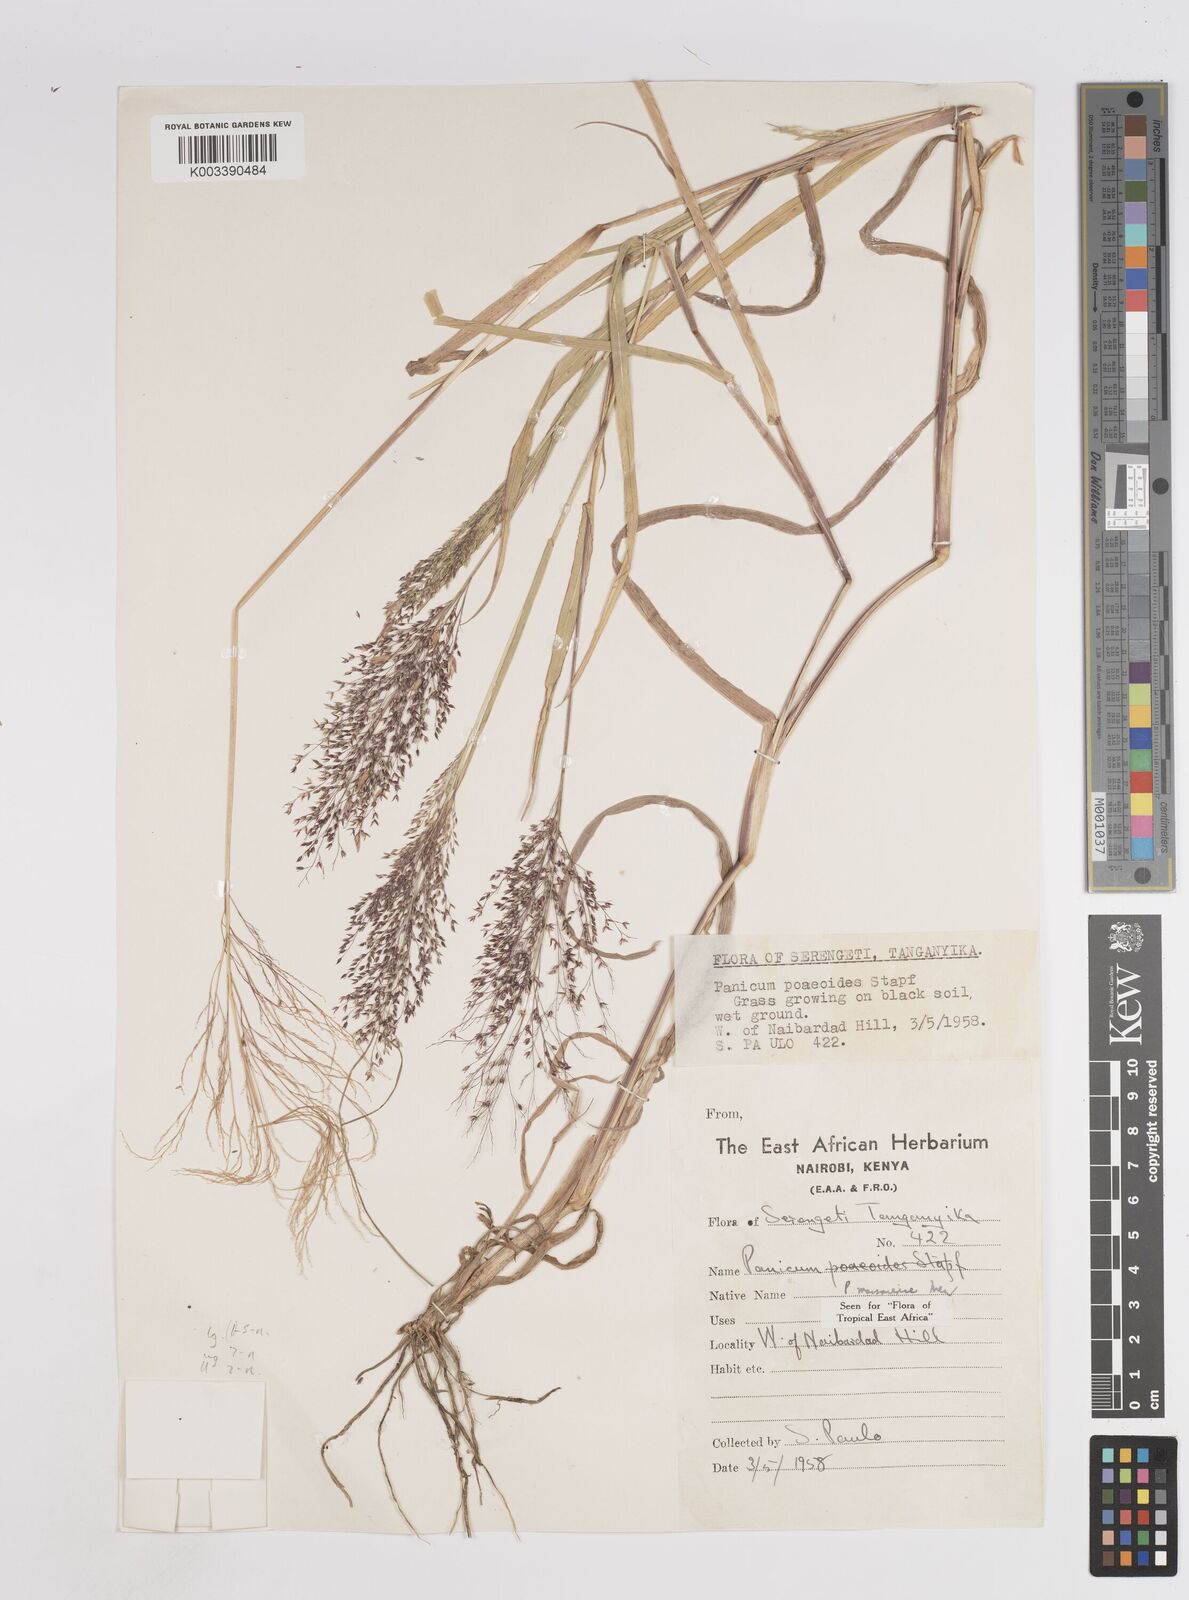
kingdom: Plantae
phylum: Tracheophyta
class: Liliopsida
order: Poales
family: Poaceae
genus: Panicum
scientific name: Panicum massaiense
